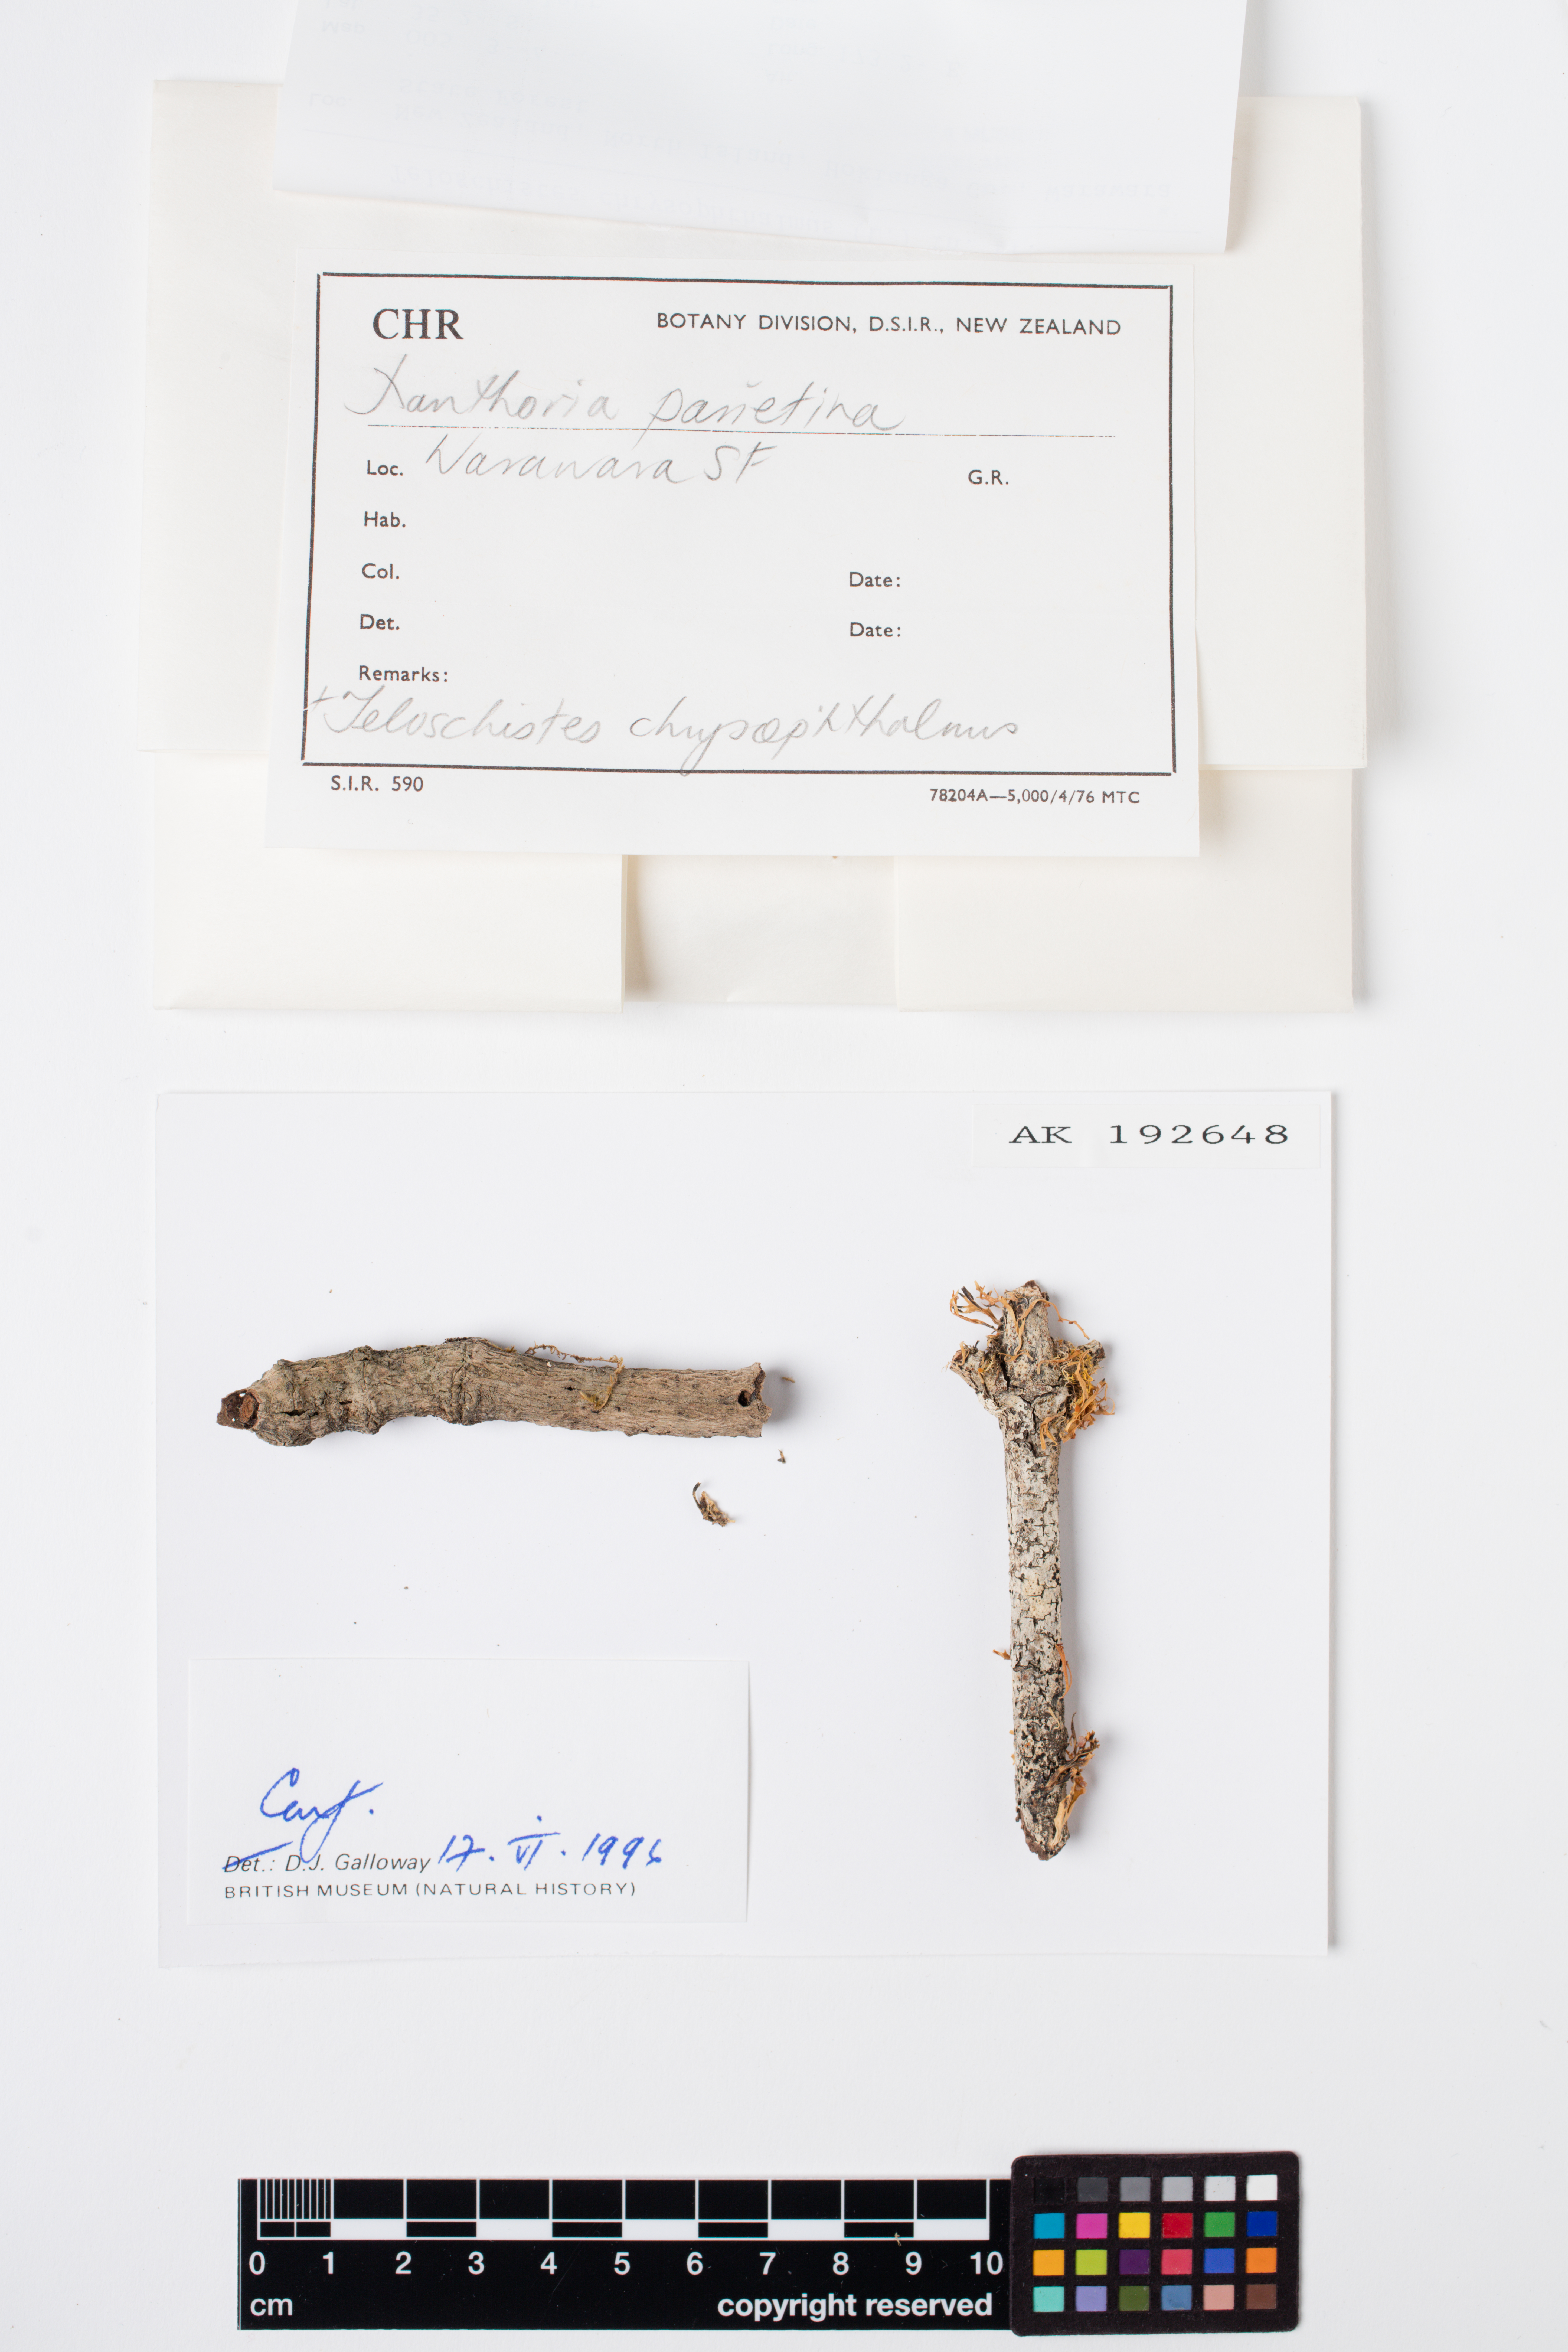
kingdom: Fungi
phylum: Ascomycota
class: Lecanoromycetes
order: Teloschistales
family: Teloschistaceae
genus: Niorma
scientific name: Niorma chrysophthalma
